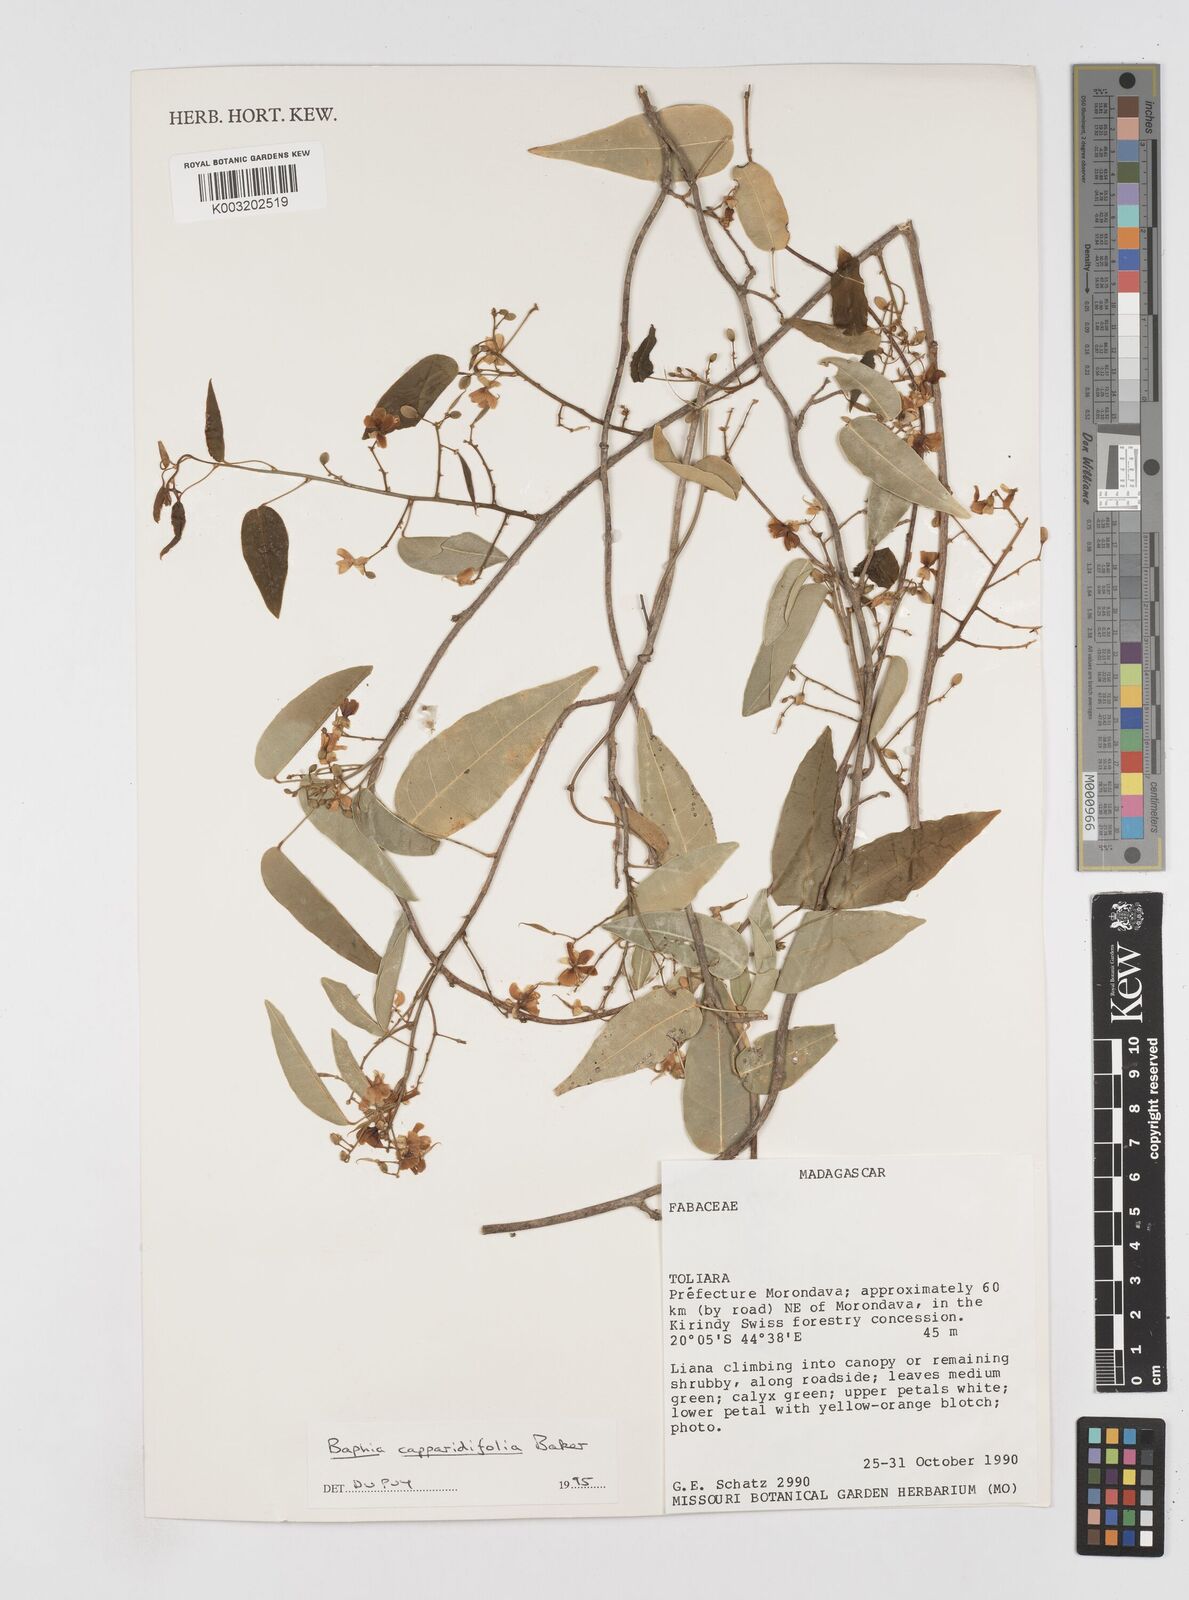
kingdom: Plantae
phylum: Tracheophyta
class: Magnoliopsida
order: Fabales
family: Fabaceae
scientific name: Fabaceae
